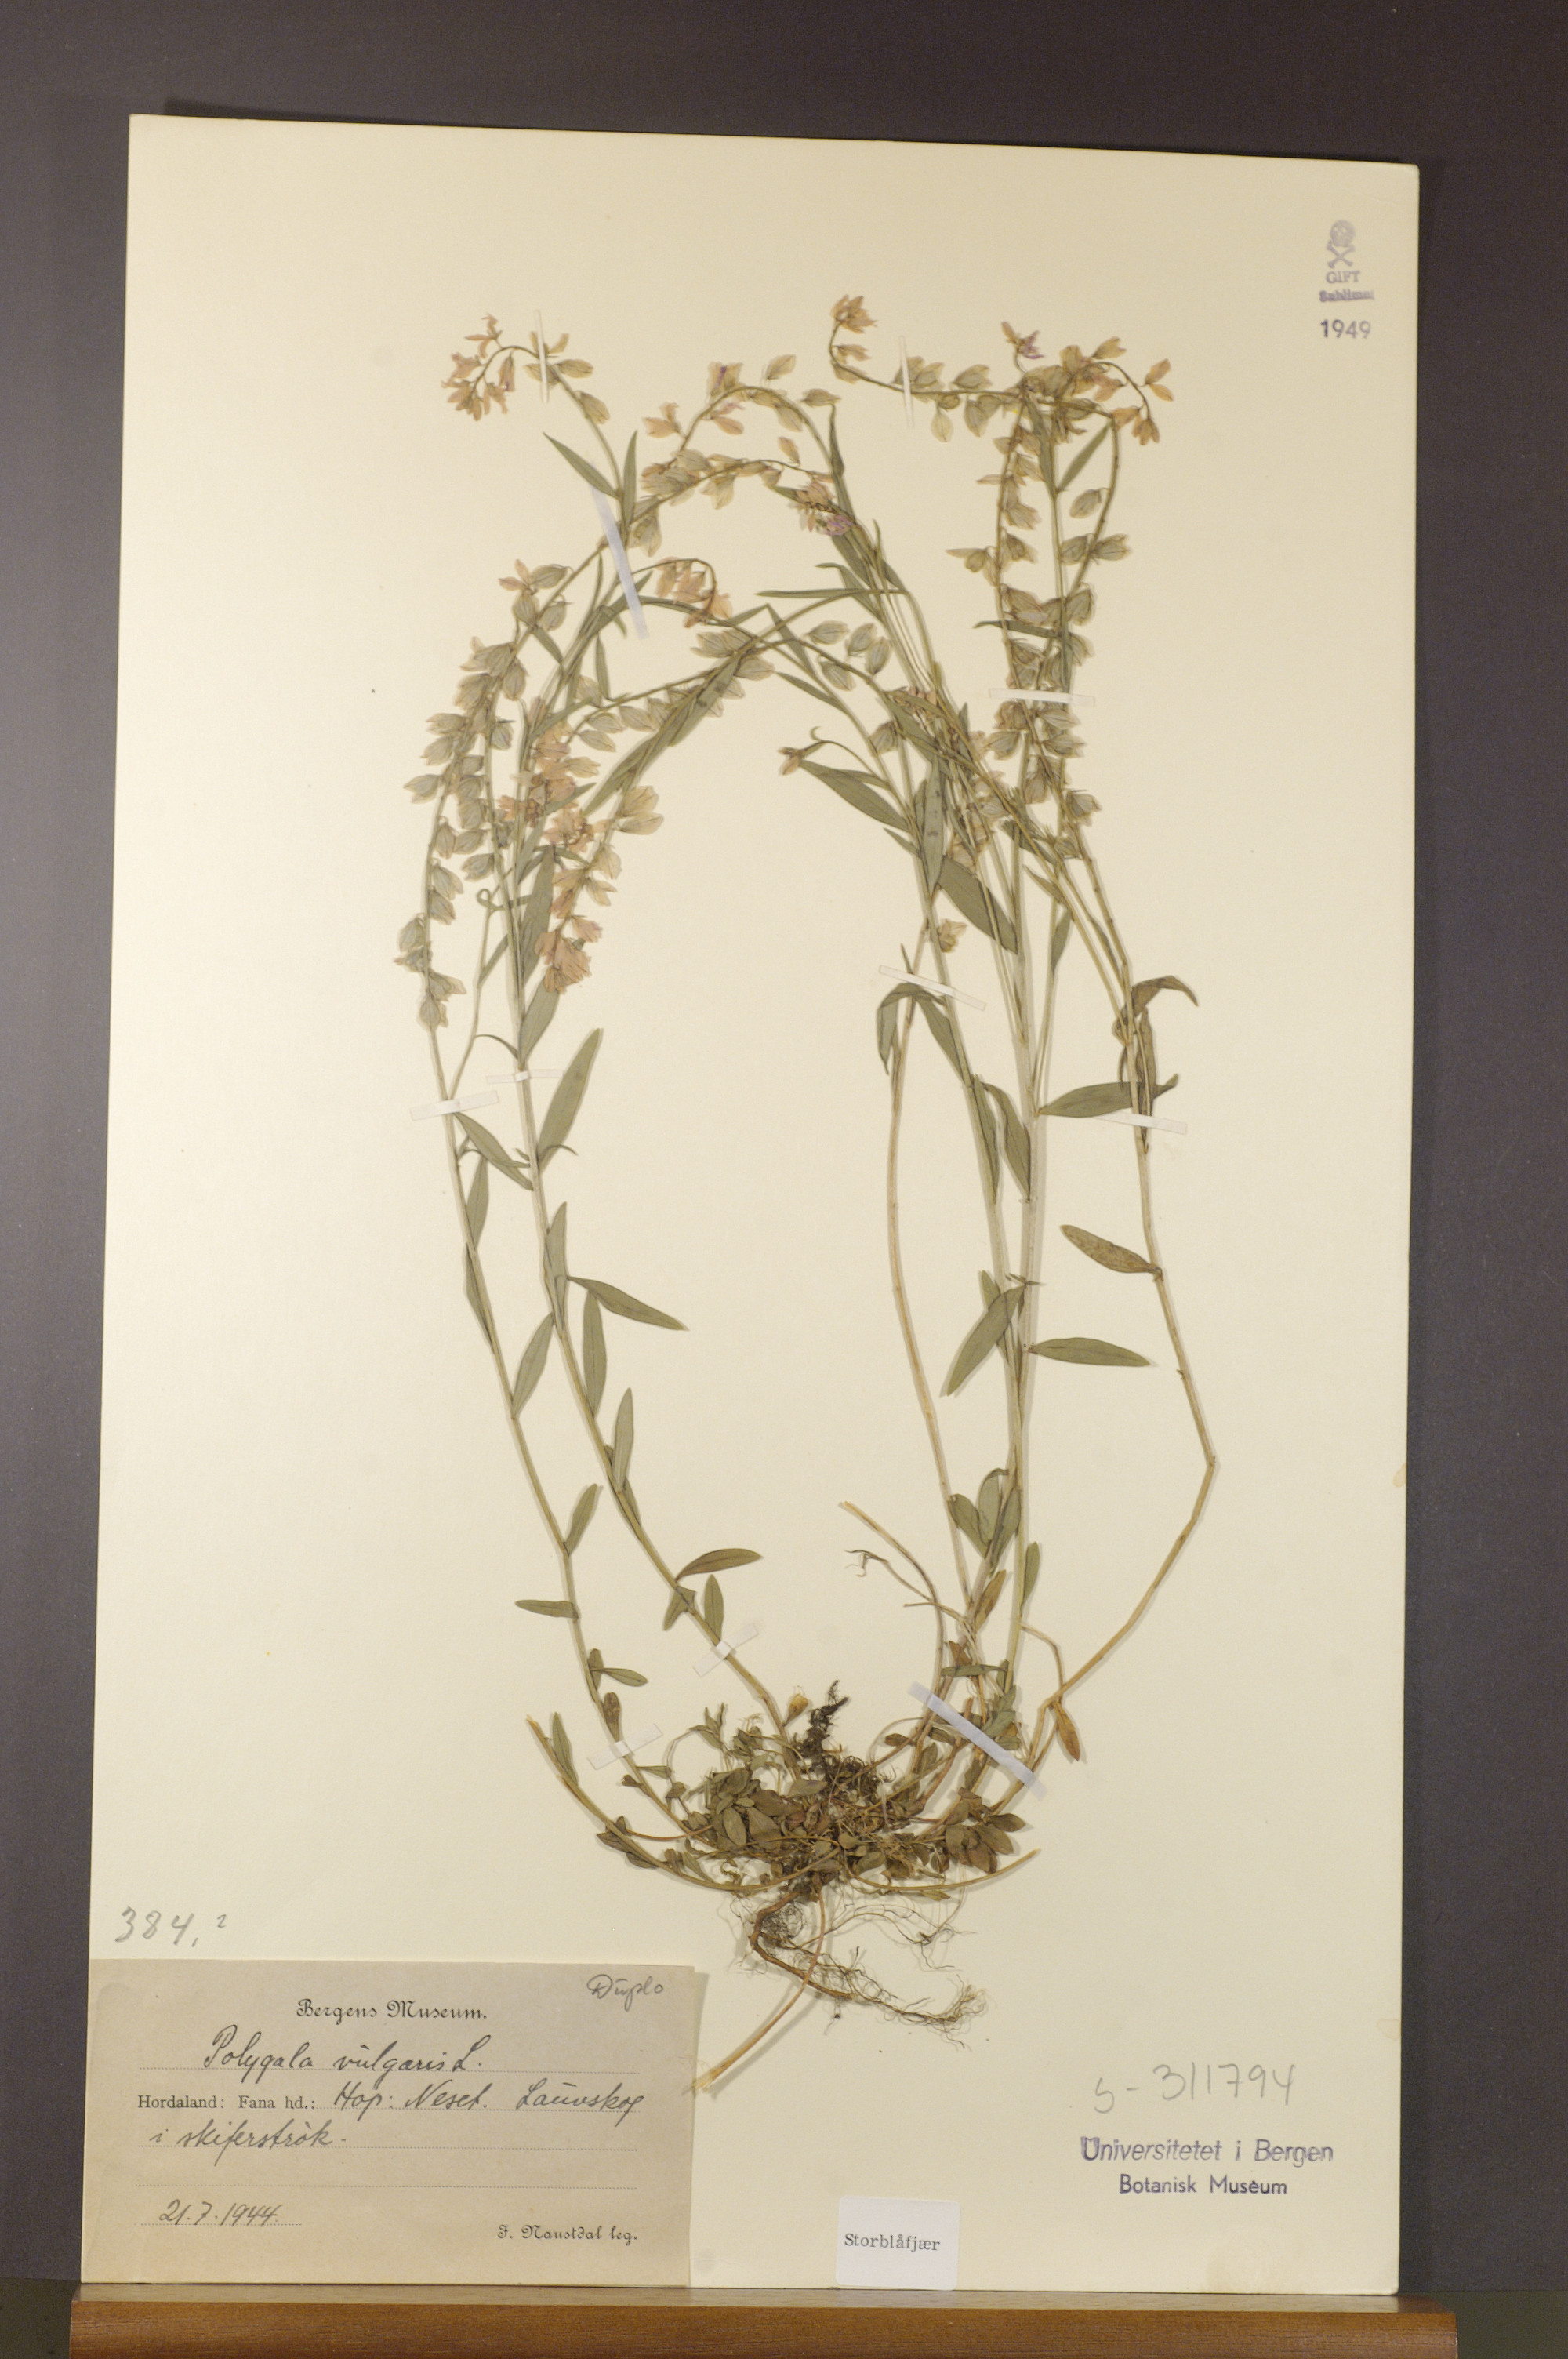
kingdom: Plantae
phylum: Tracheophyta
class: Magnoliopsida
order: Fabales
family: Polygalaceae
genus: Polygala
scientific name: Polygala vulgaris
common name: Common milkwort
